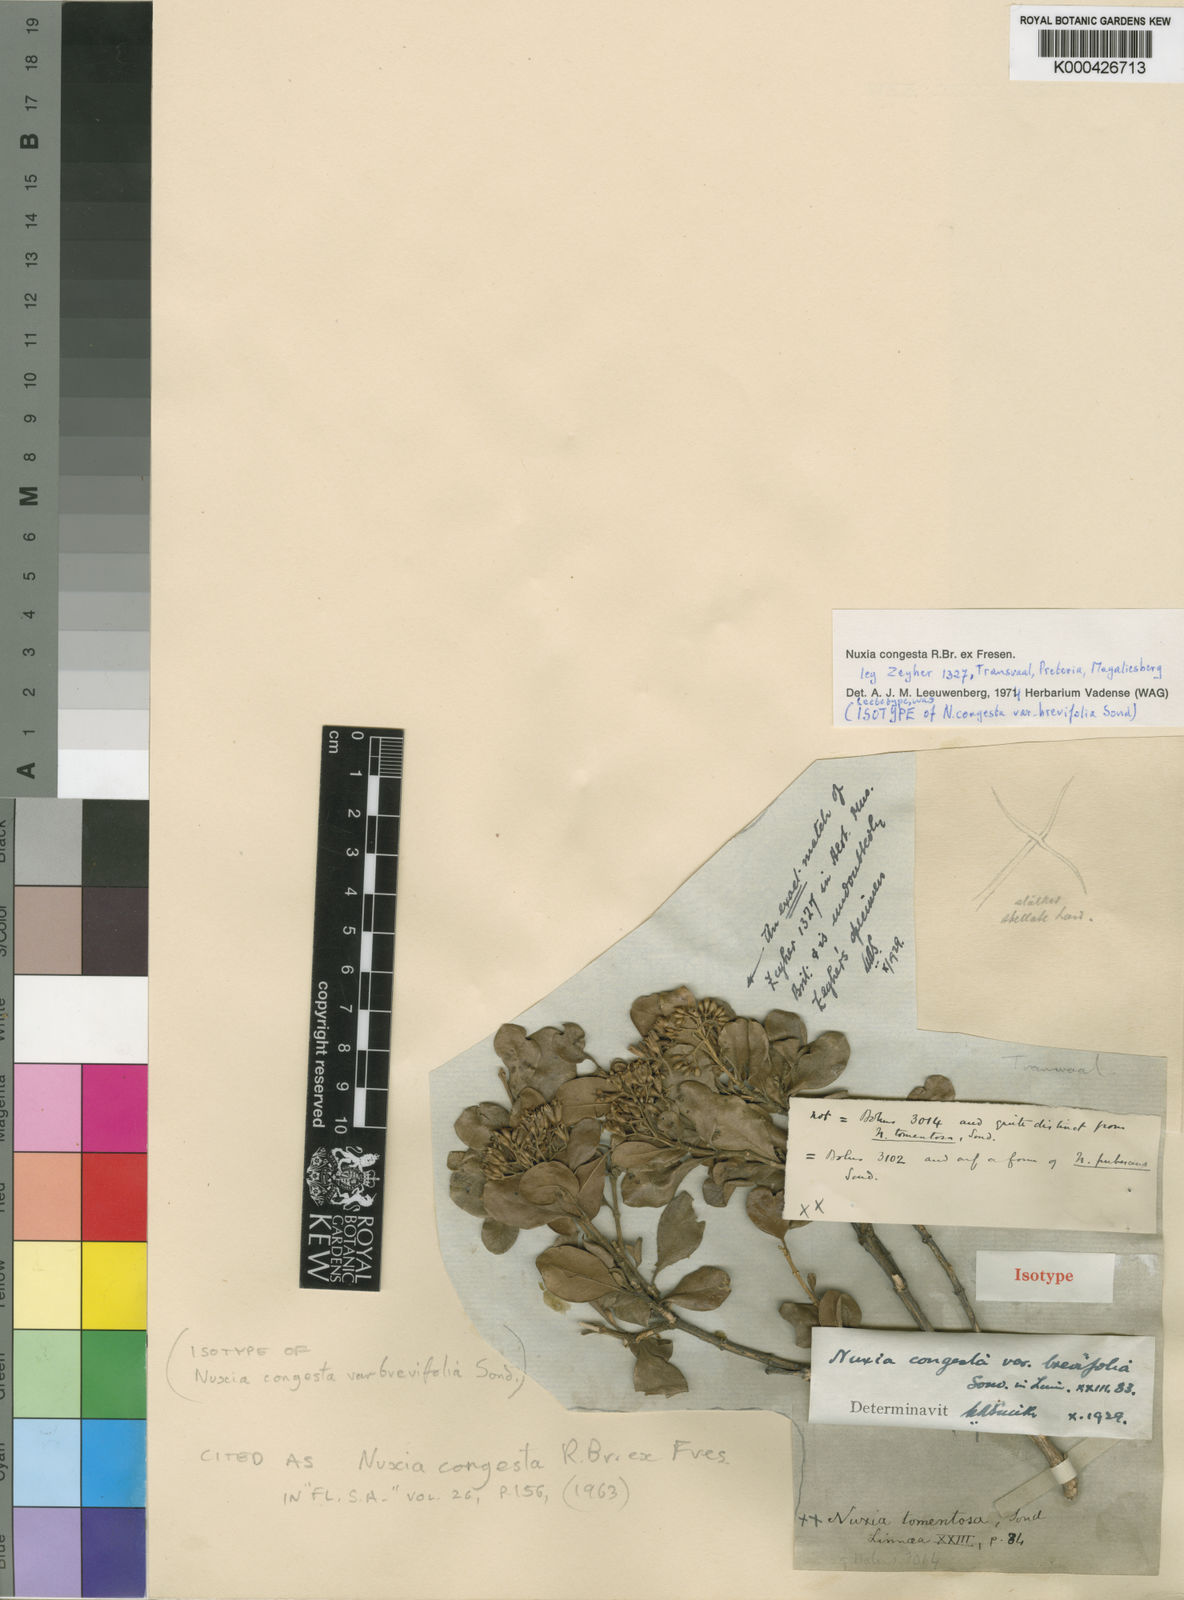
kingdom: Plantae
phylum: Tracheophyta
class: Magnoliopsida
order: Lamiales
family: Stilbaceae
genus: Nuxia
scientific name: Nuxia congesta
